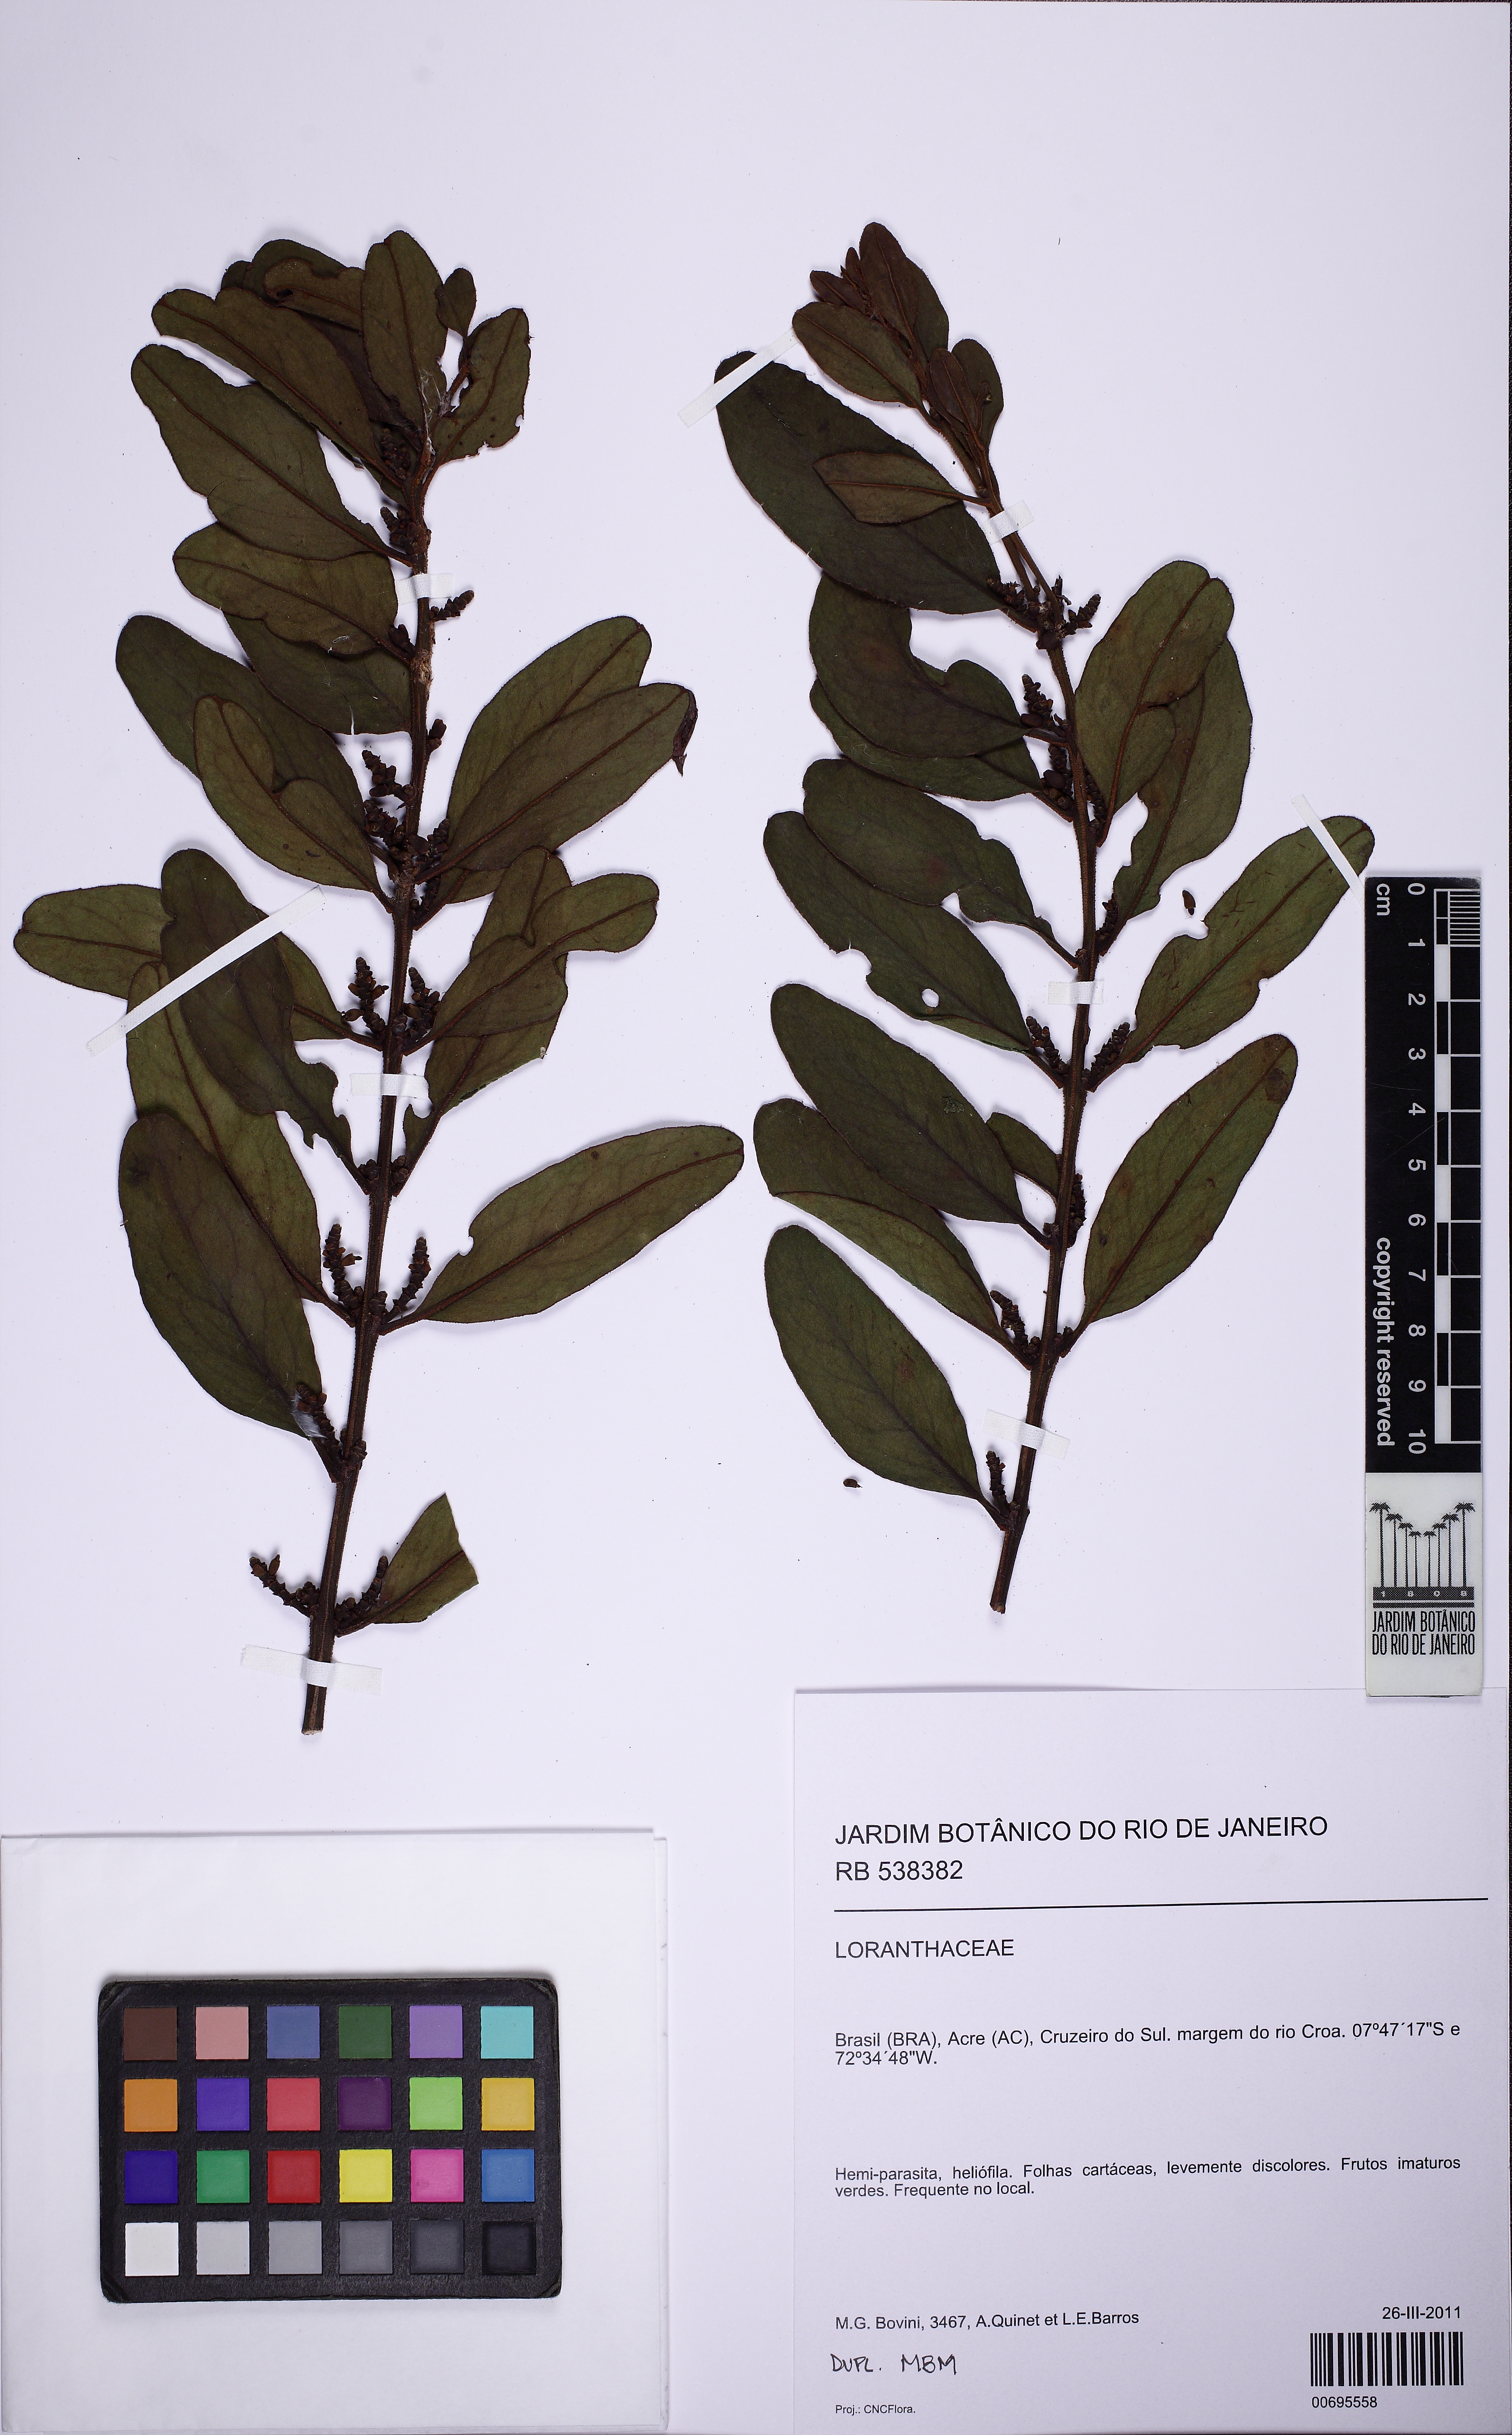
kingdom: Plantae
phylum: Tracheophyta
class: Magnoliopsida
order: Santalales
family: Loranthaceae
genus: Oryctanthus
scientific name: Oryctanthus florulentus
